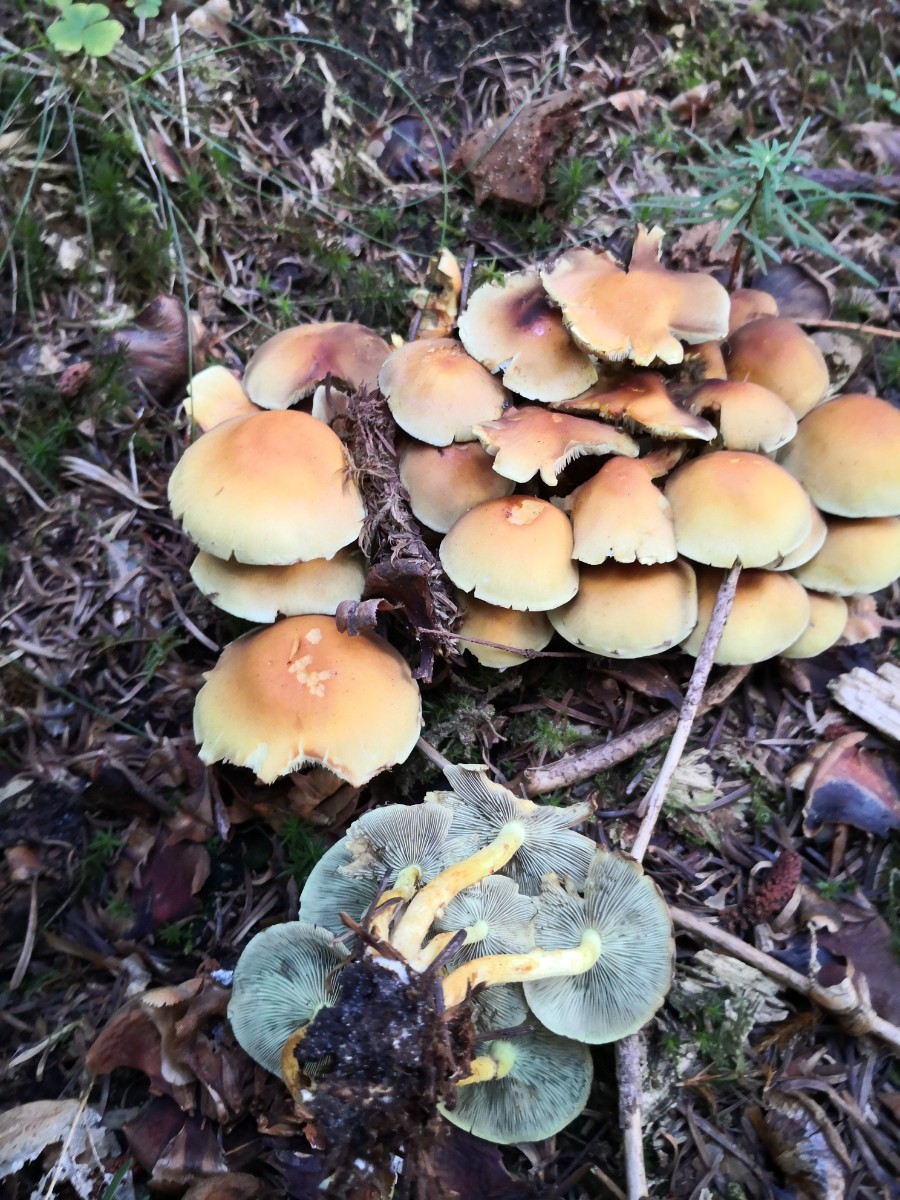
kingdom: Fungi
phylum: Basidiomycota
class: Agaricomycetes
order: Agaricales
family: Strophariaceae
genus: Hypholoma
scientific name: Hypholoma fasciculare
